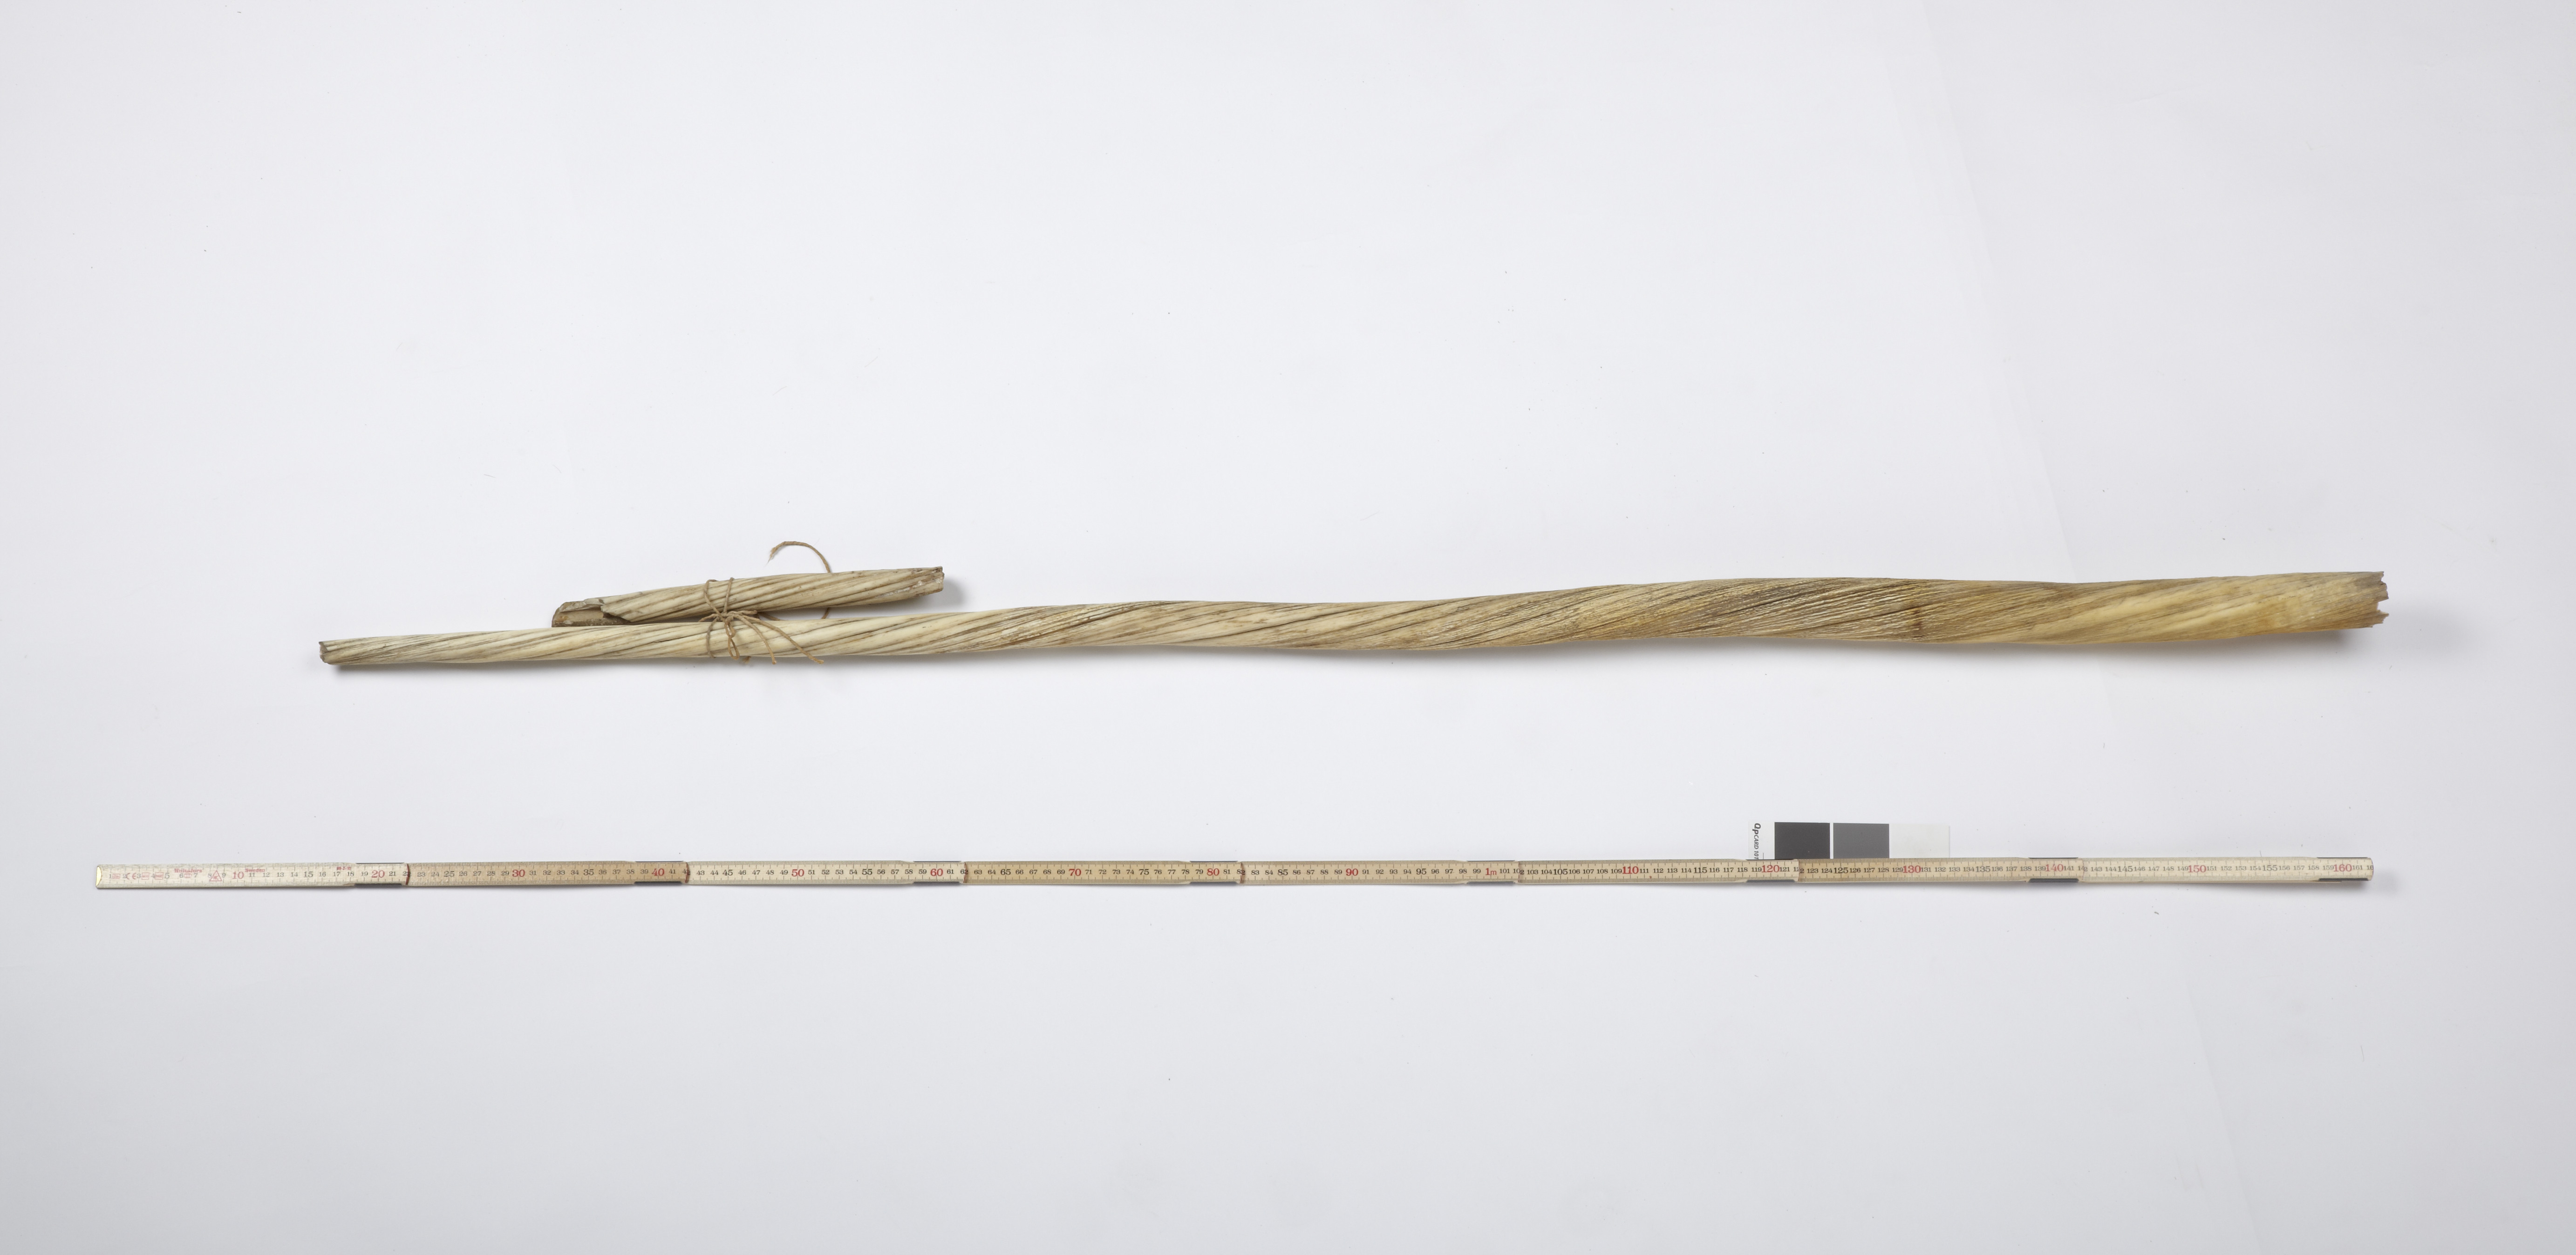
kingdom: Animalia
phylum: Chordata
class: Mammalia
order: Cetacea
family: Monodontidae
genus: Monodon
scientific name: Monodon monoceros
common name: Narwhal
